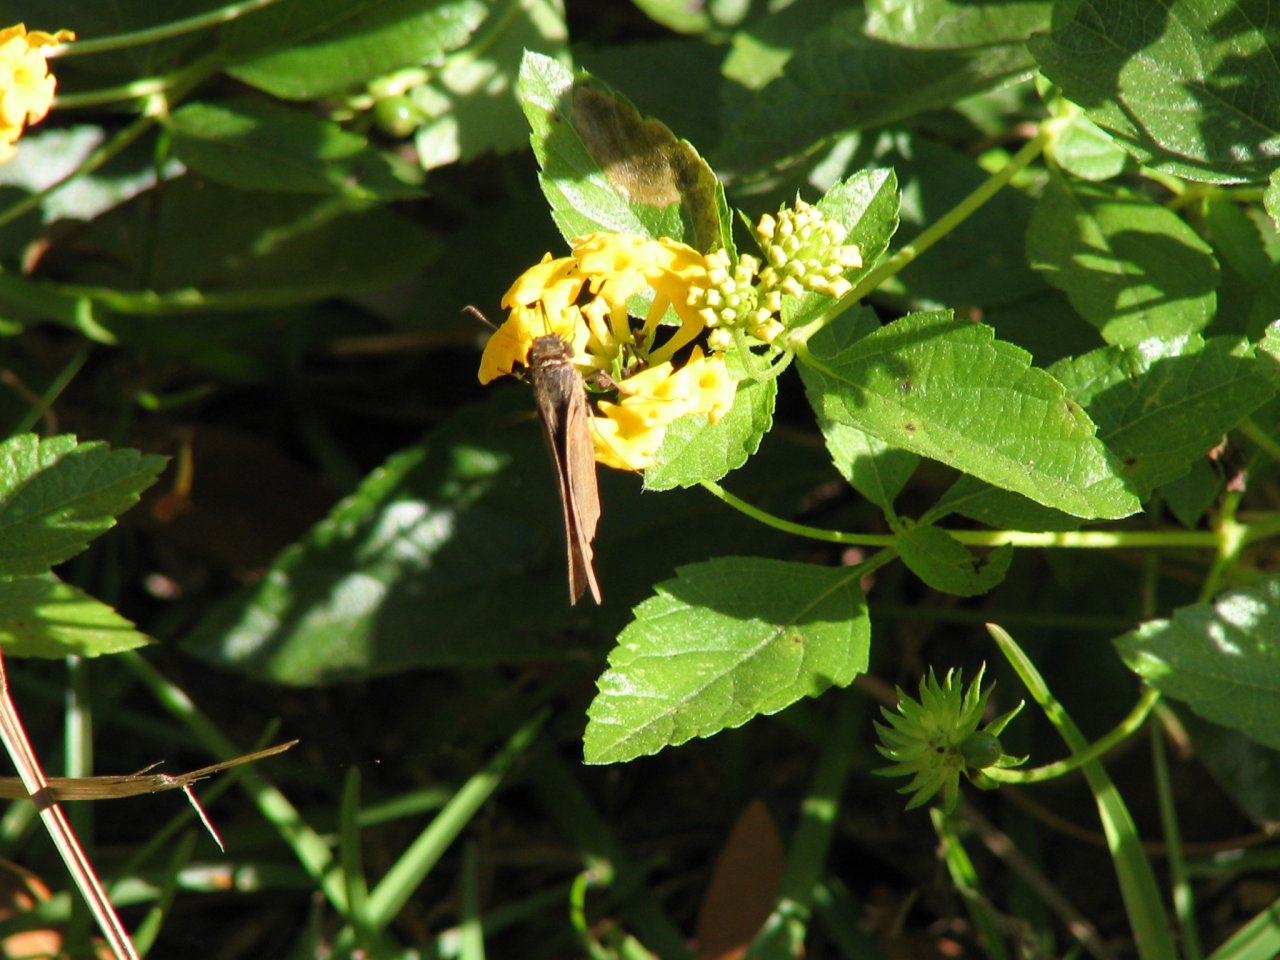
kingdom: Animalia
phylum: Arthropoda
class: Insecta
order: Lepidoptera
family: Hesperiidae
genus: Panoquina
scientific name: Panoquina ocola
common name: Ocola Skipper
